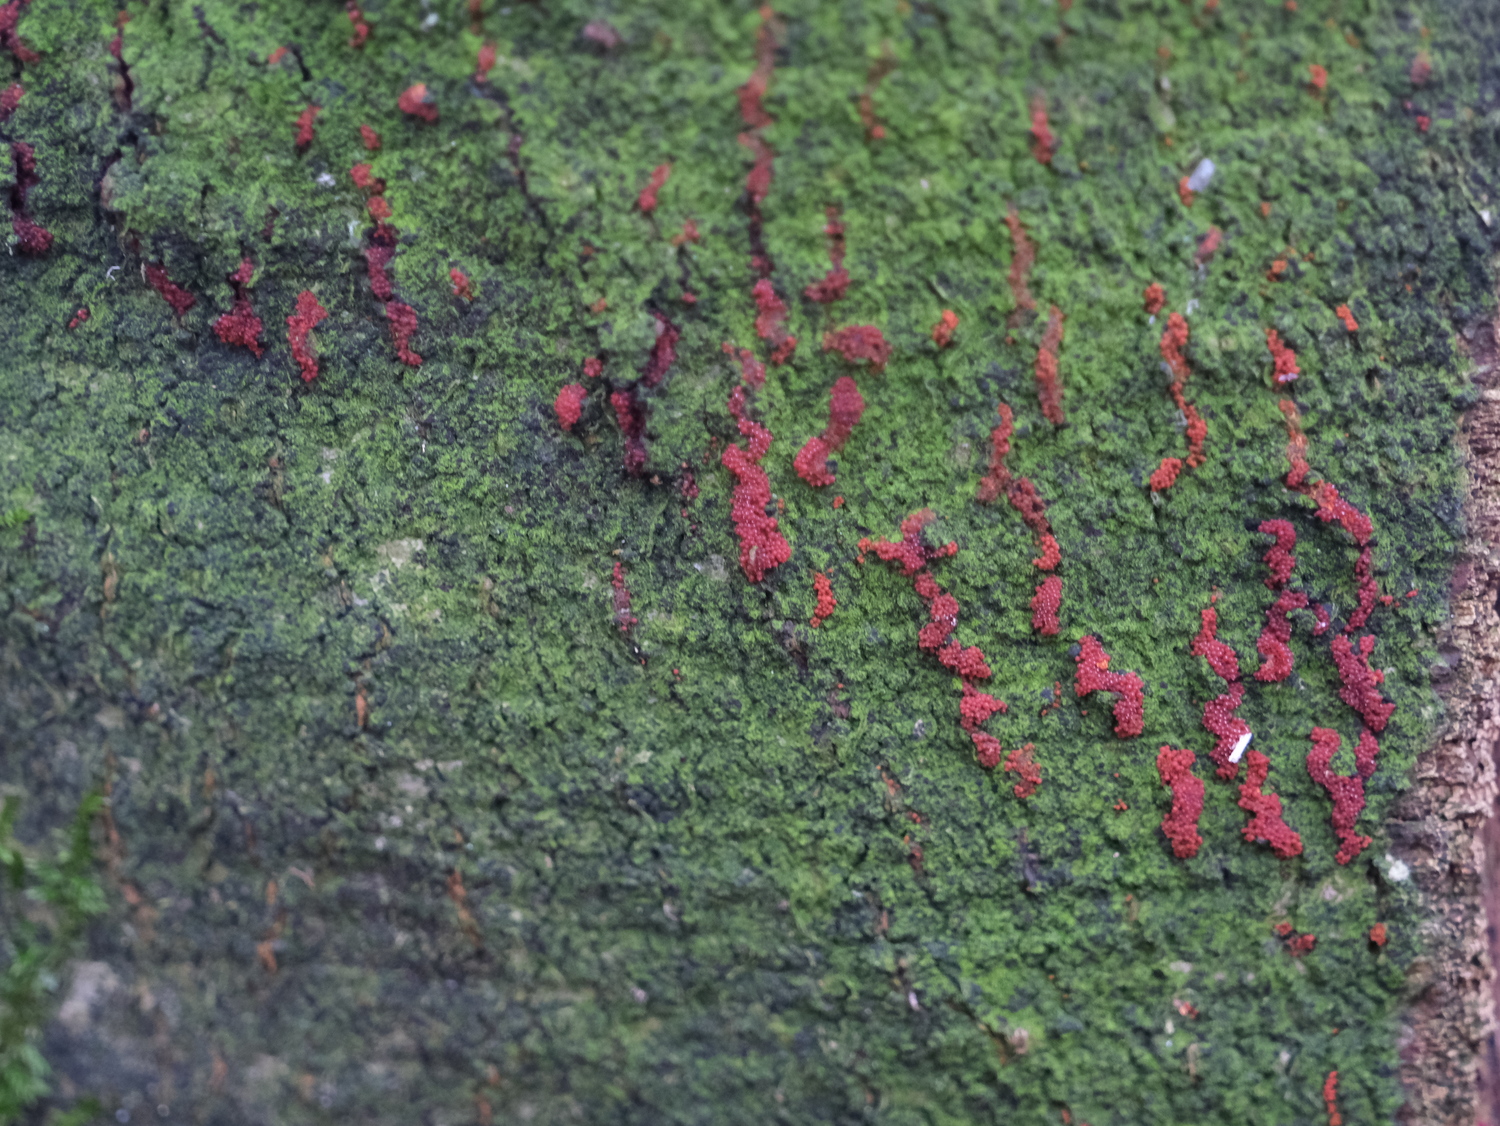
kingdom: Fungi
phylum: Ascomycota
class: Sordariomycetes
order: Hypocreales
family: Nectriaceae
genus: Neonectria
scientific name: Neonectria coccinea
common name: bøgebark-cinnobersvamp
